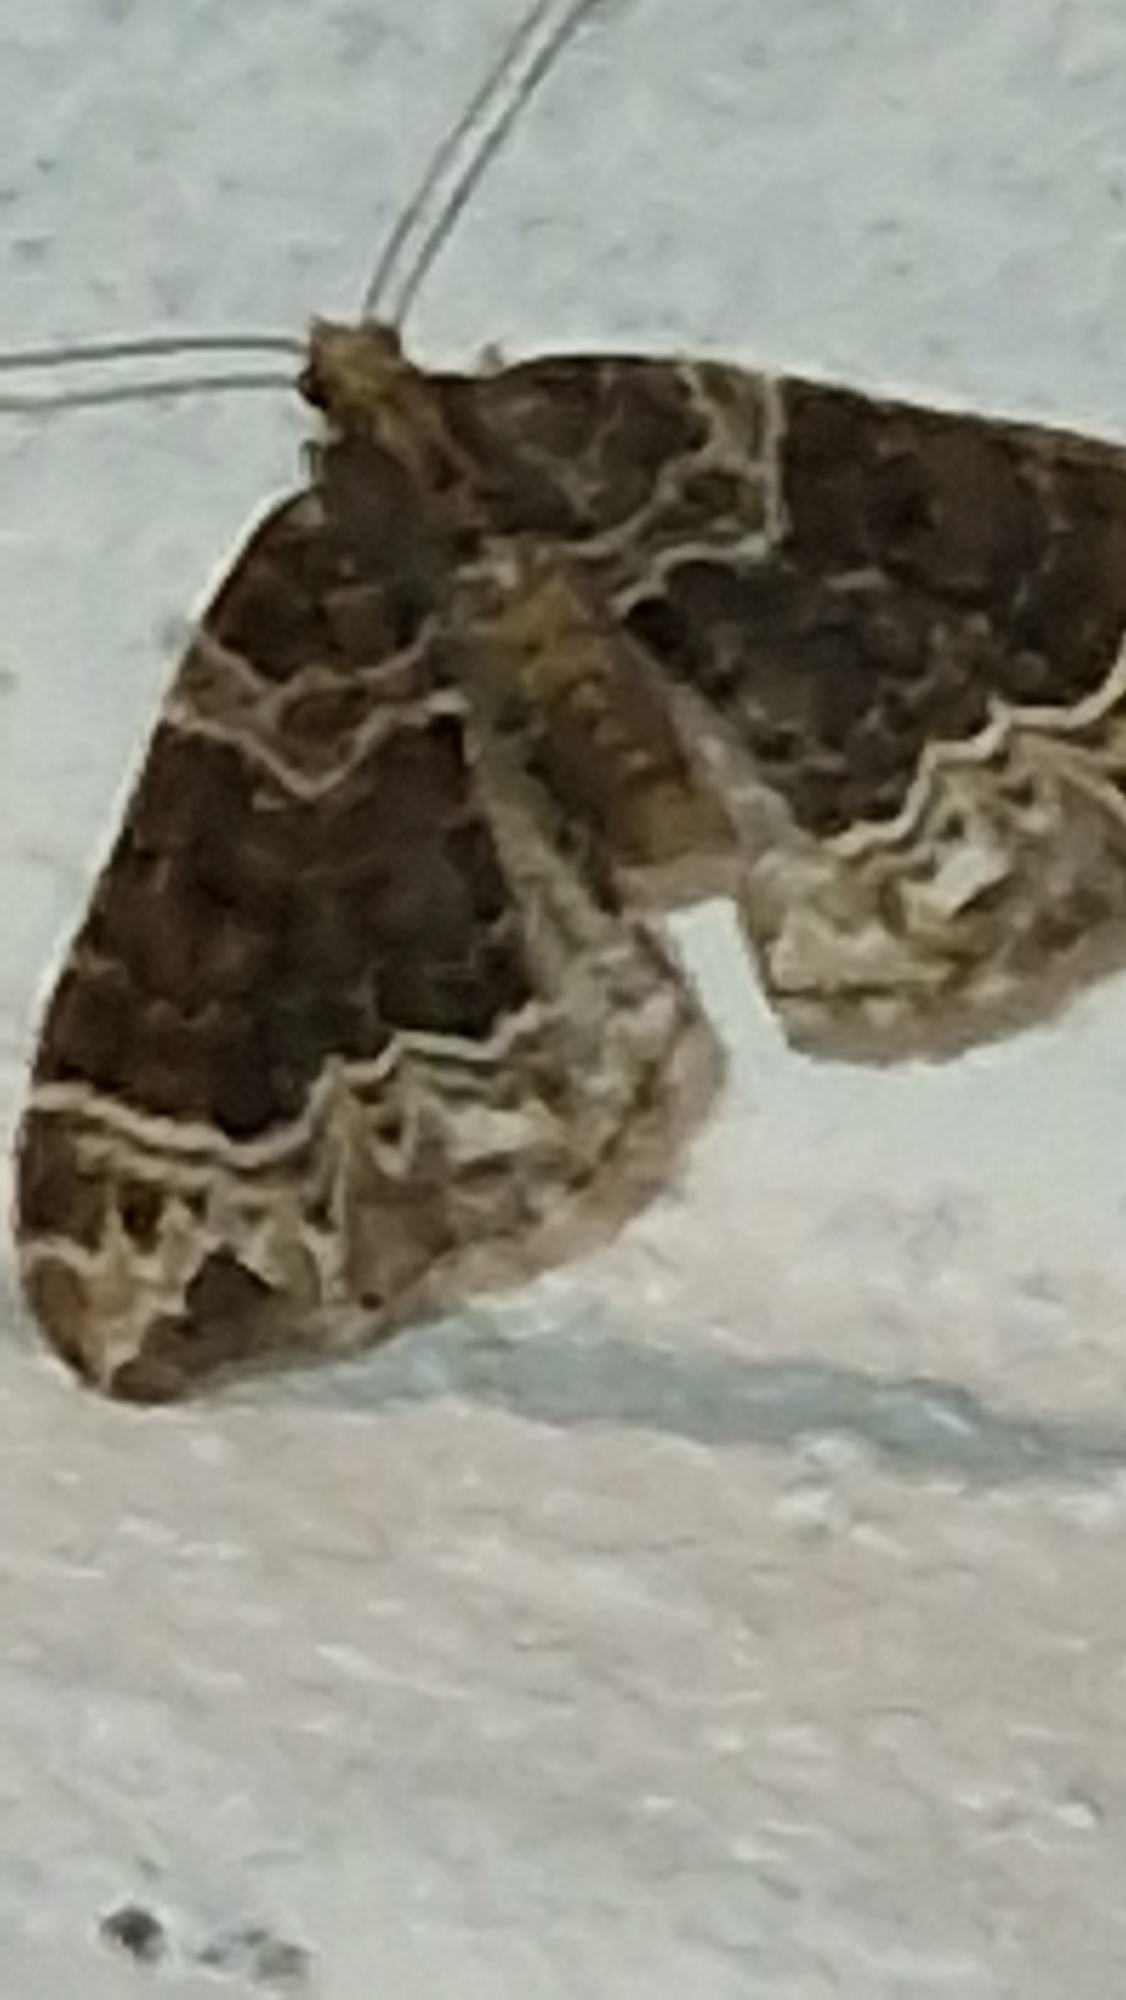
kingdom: Animalia
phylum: Arthropoda
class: Insecta
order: Lepidoptera
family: Geometridae
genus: Ecliptopera
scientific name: Ecliptopera silaceata
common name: Dueurt-bladmåler
